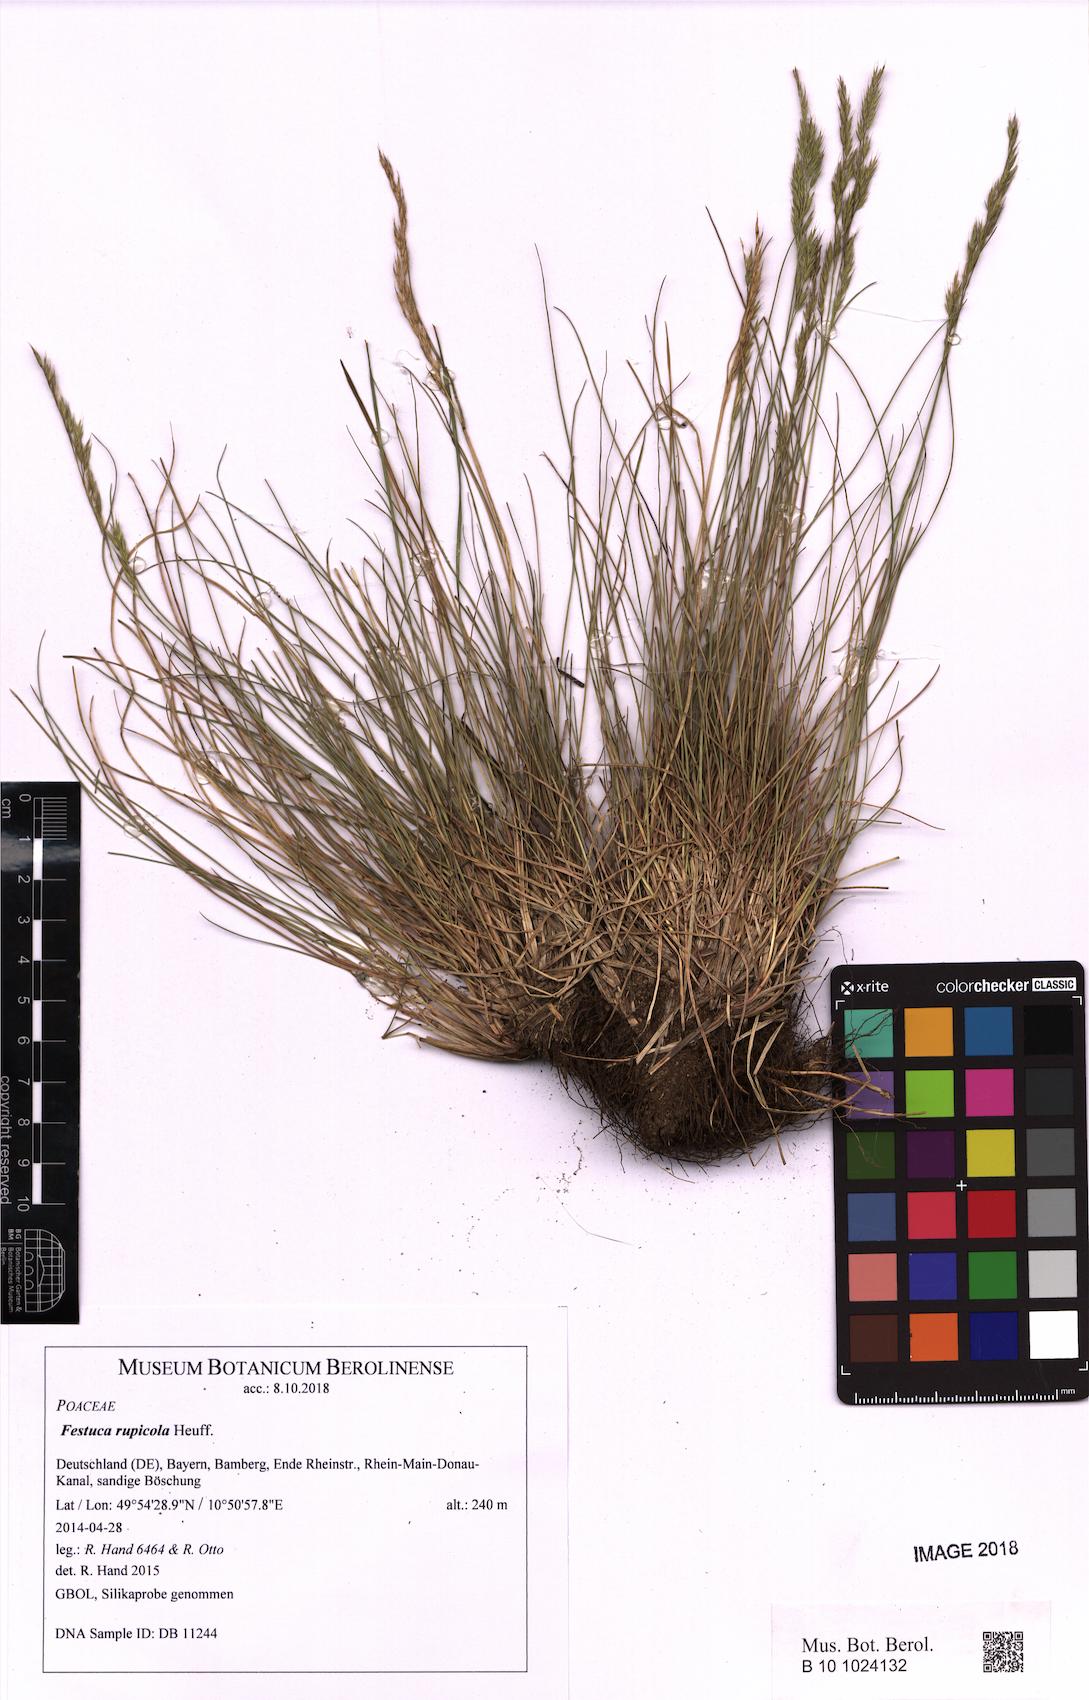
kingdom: Plantae
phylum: Tracheophyta
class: Liliopsida
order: Poales
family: Poaceae
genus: Festuca
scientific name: Festuca rupicola
